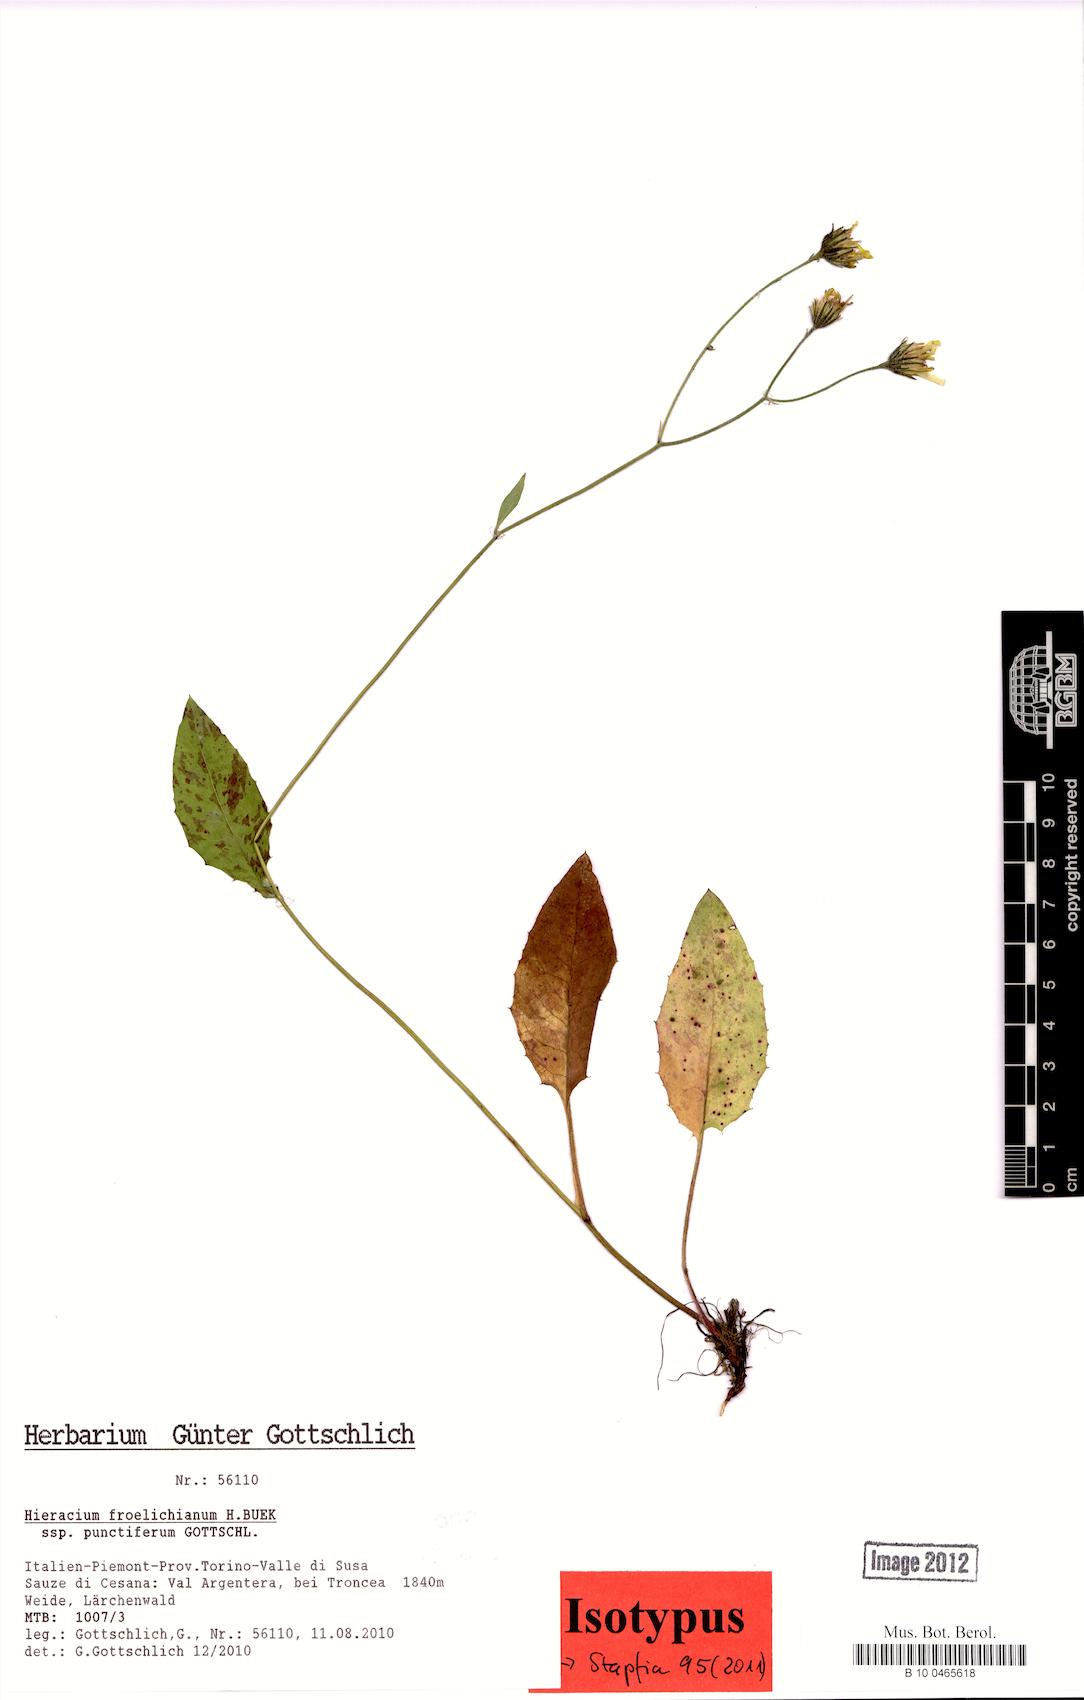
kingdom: Plantae
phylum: Tracheophyta
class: Magnoliopsida
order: Asterales
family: Asteraceae
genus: Hieracium
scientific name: Hieracium froelichianum
